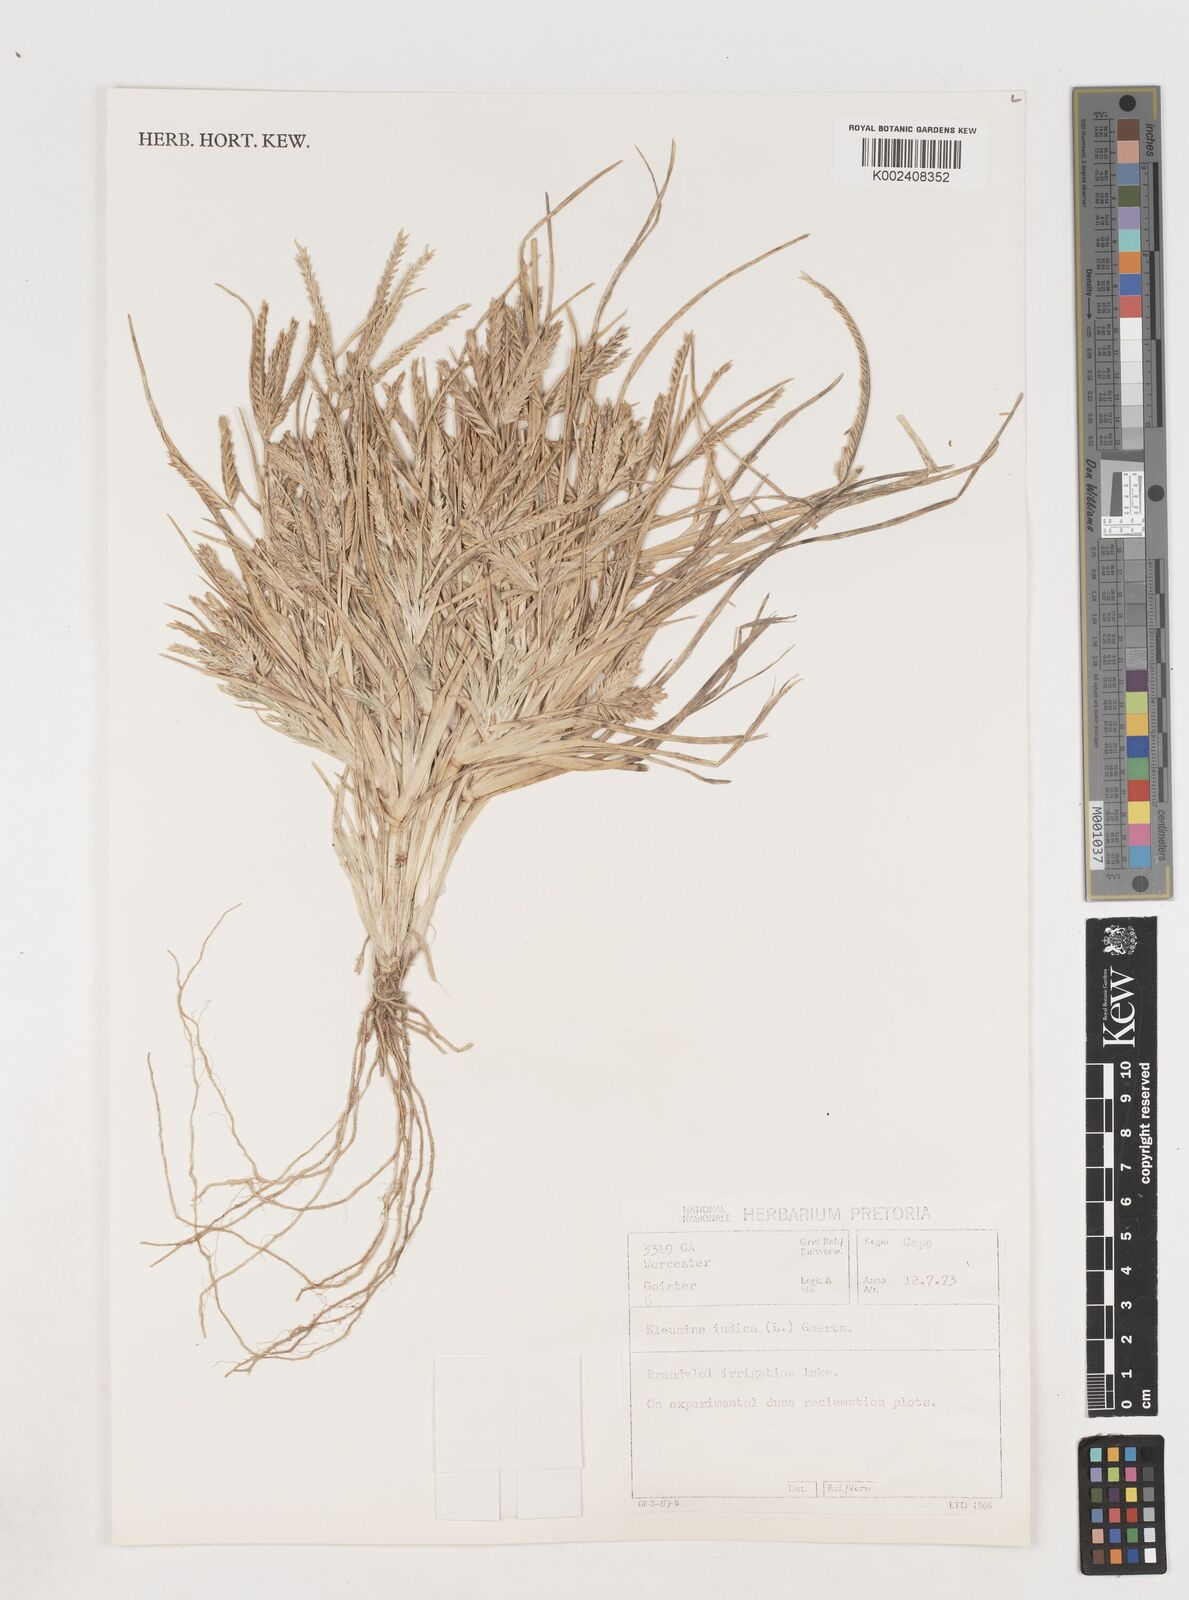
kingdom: Plantae
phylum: Tracheophyta
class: Liliopsida
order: Poales
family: Poaceae
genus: Eleusine
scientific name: Eleusine indica
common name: Yard-grass
